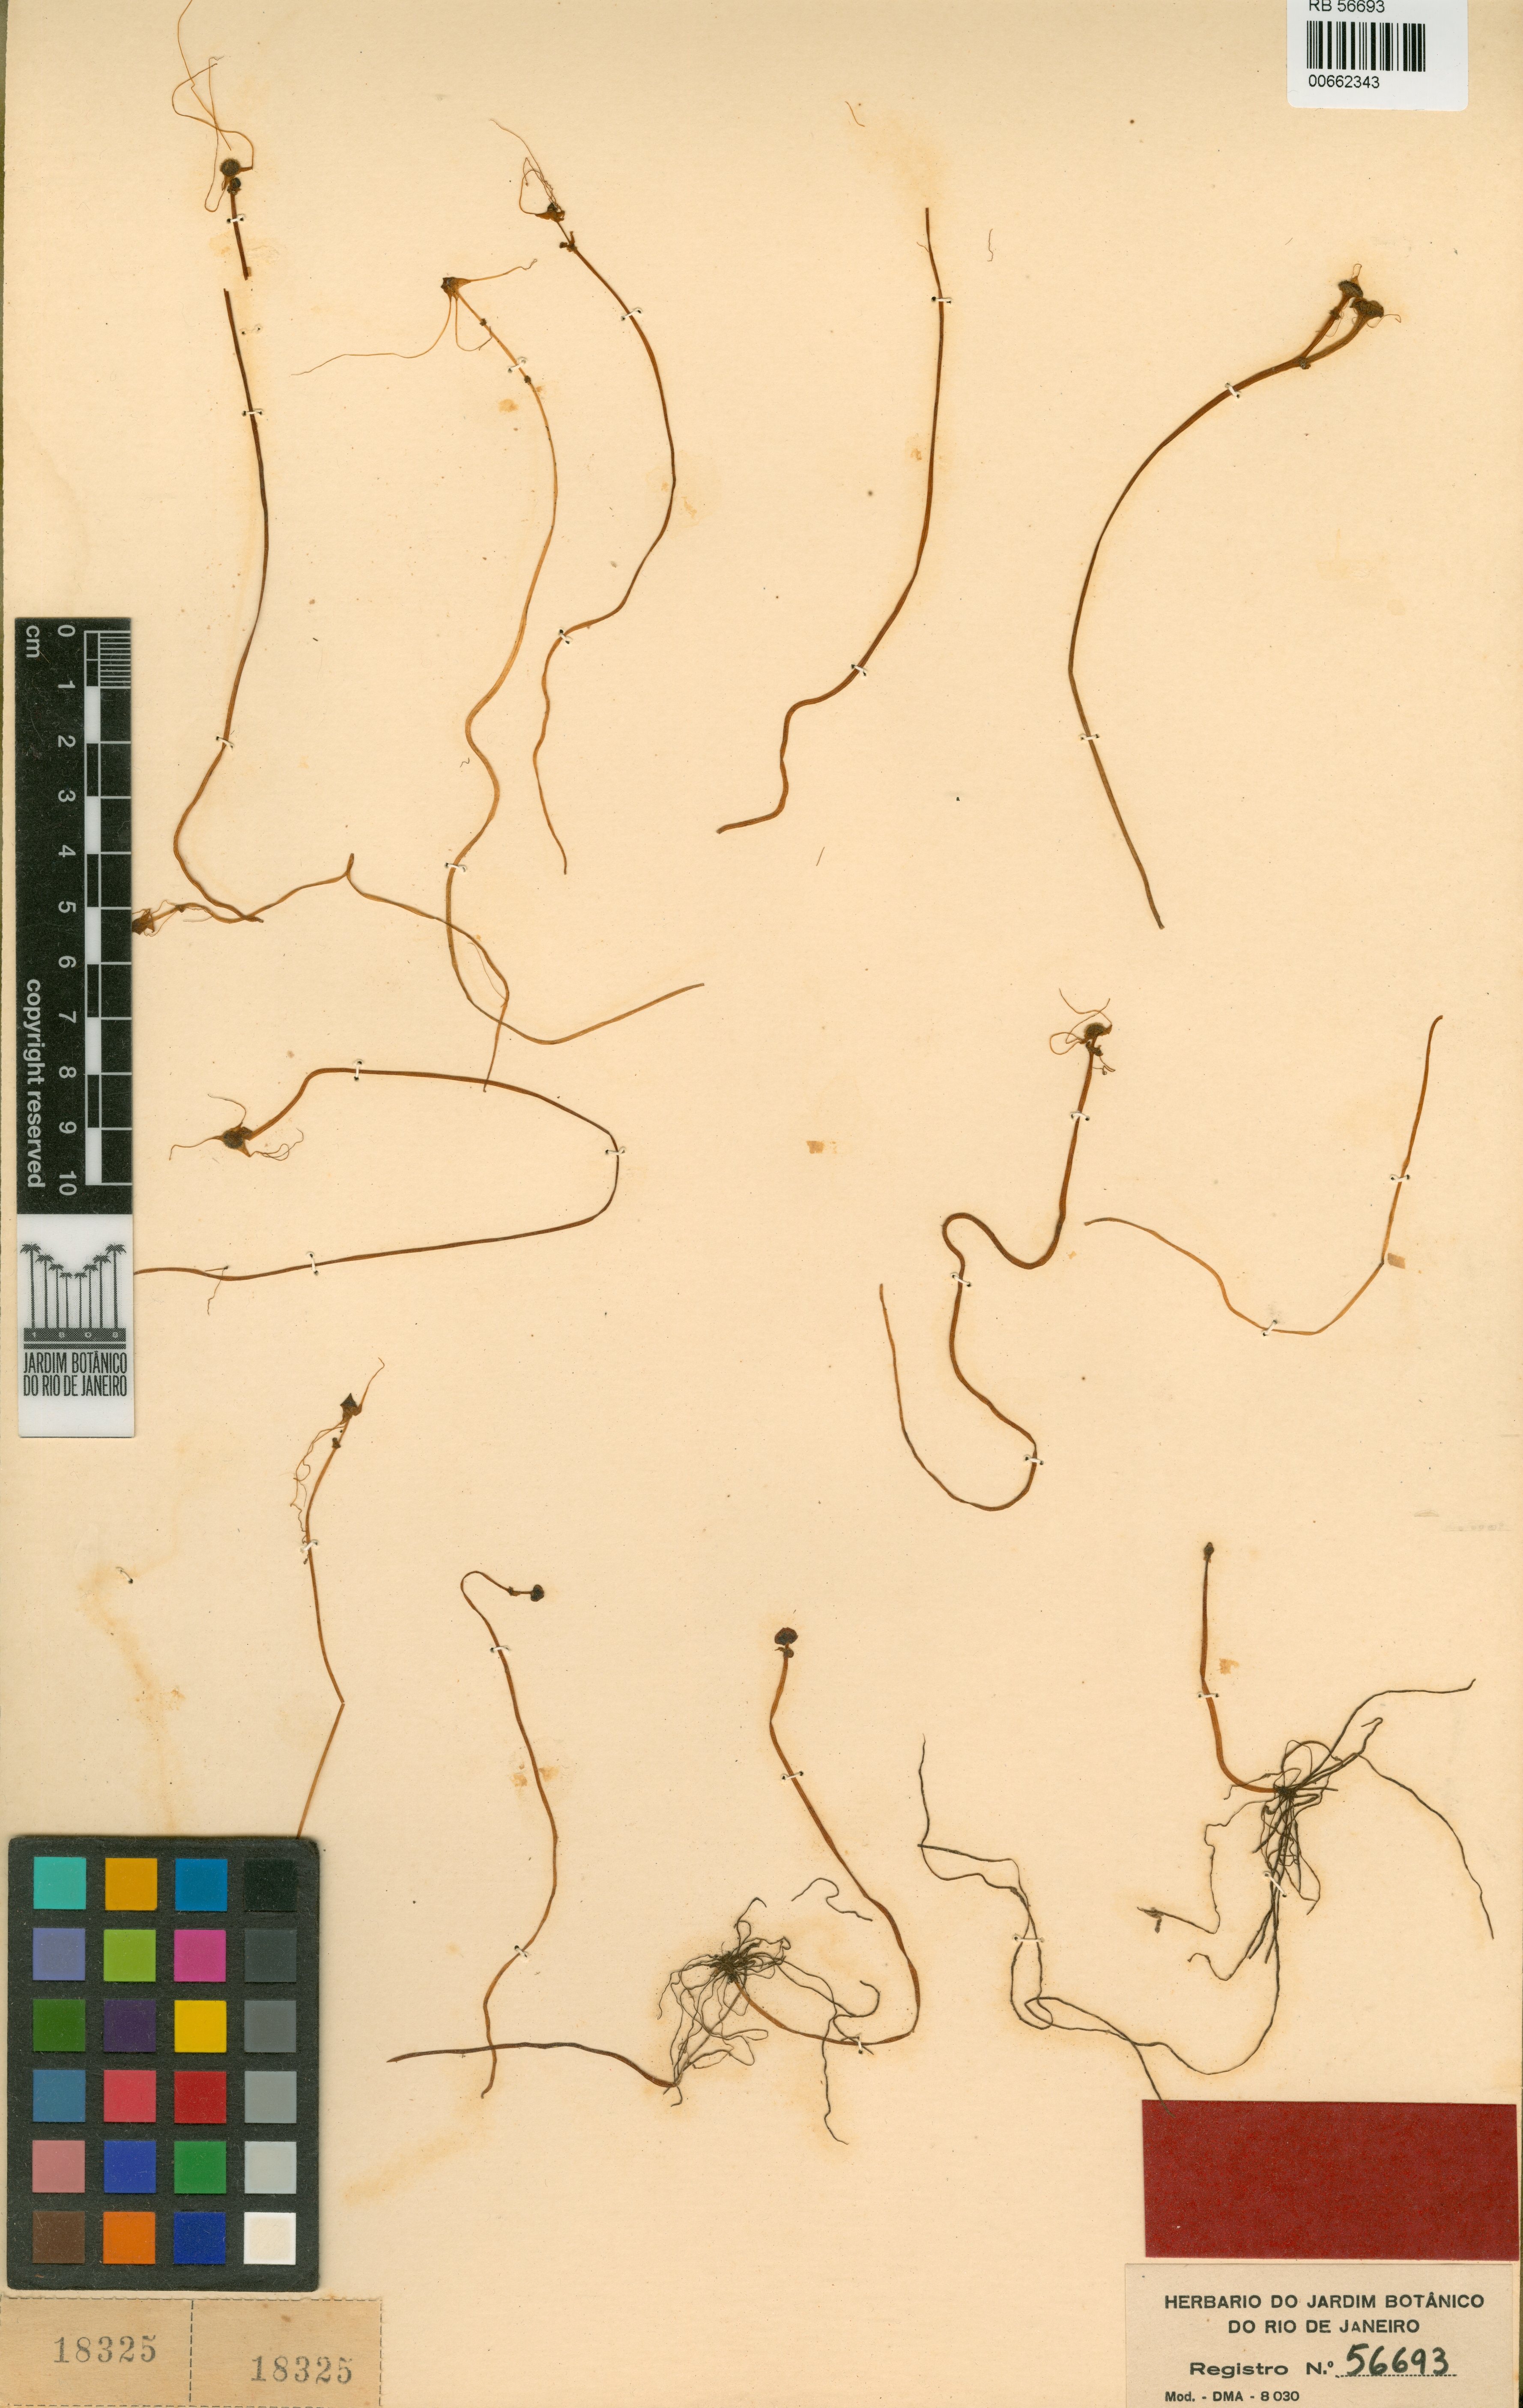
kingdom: Plantae
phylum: Tracheophyta
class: Liliopsida
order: Pandanales
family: Triuridaceae
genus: Triuris
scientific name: Triuris hyalina
